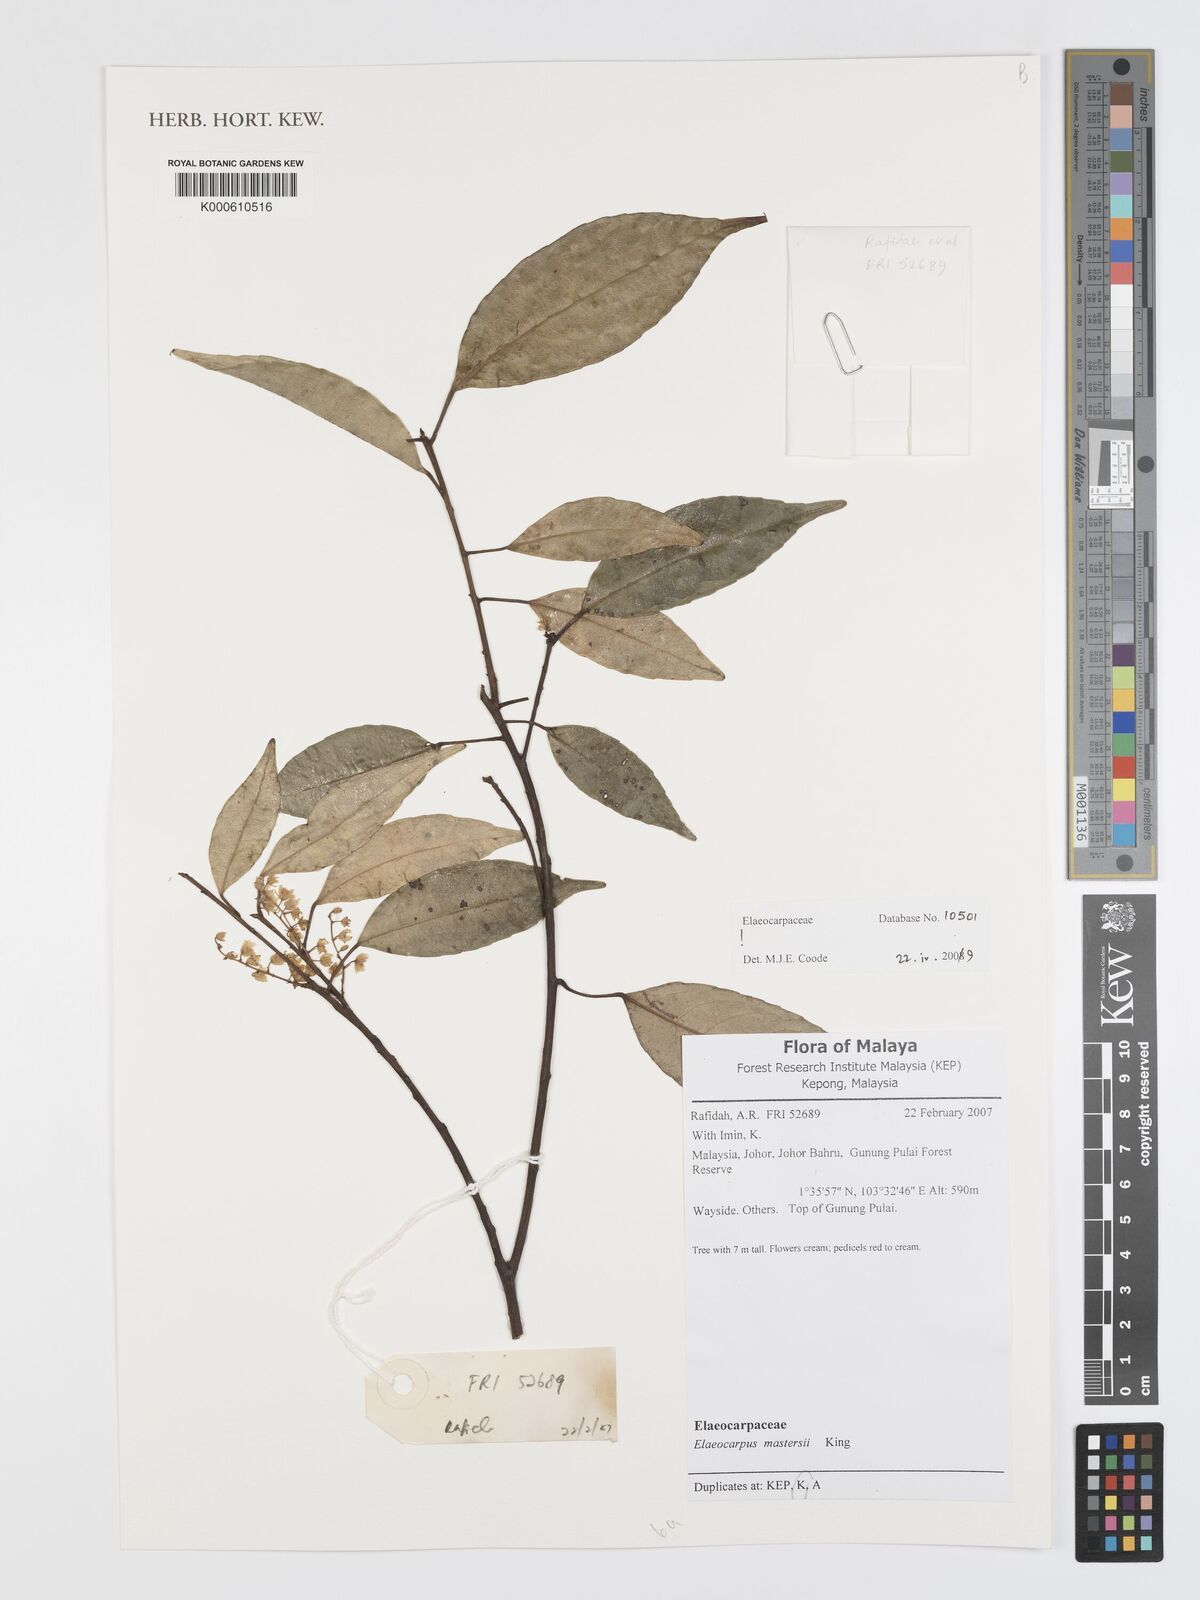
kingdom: Plantae
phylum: Tracheophyta
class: Magnoliopsida
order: Oxalidales
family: Elaeocarpaceae
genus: Elaeocarpus
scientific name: Elaeocarpus mastersii
